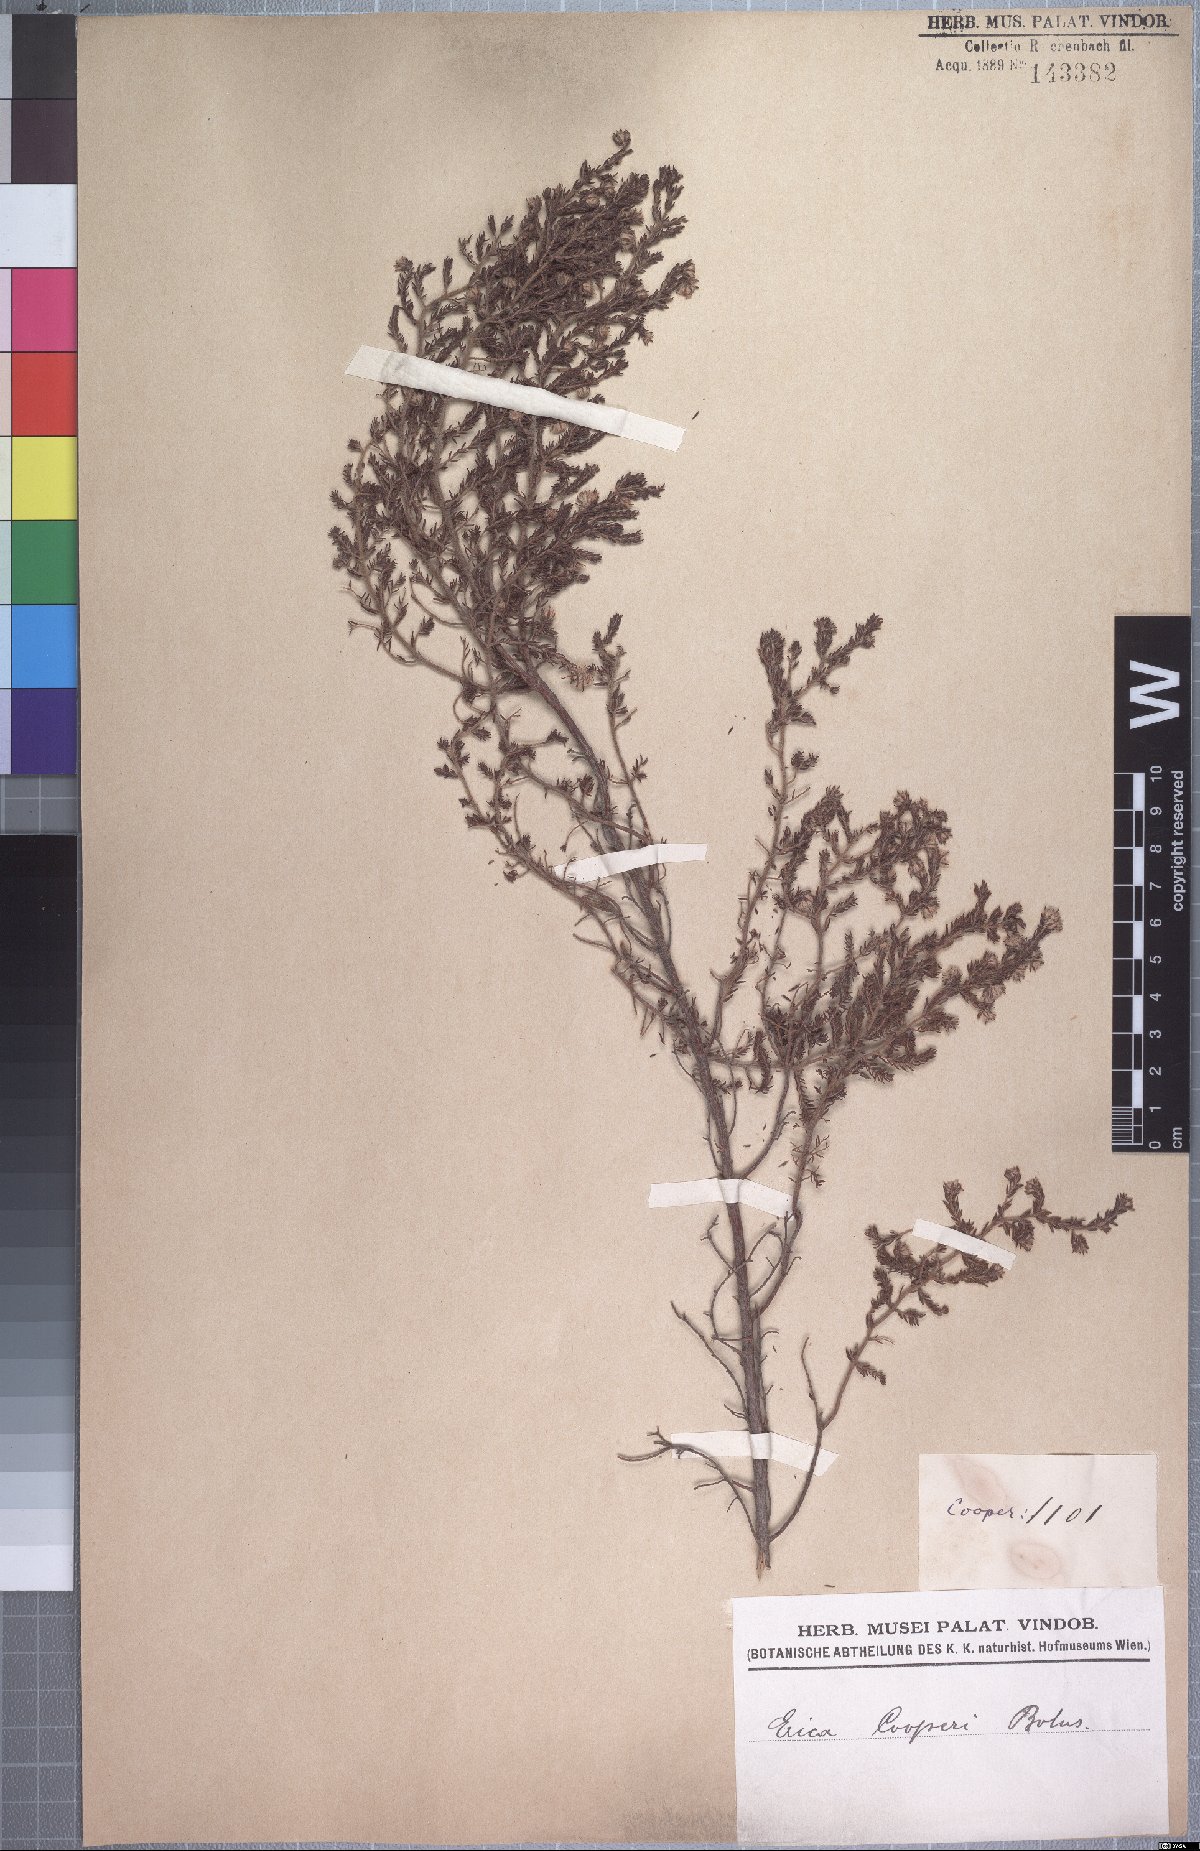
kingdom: Plantae
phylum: Tracheophyta
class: Magnoliopsida
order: Ericales
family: Ericaceae
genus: Erica
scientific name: Erica cooperi
